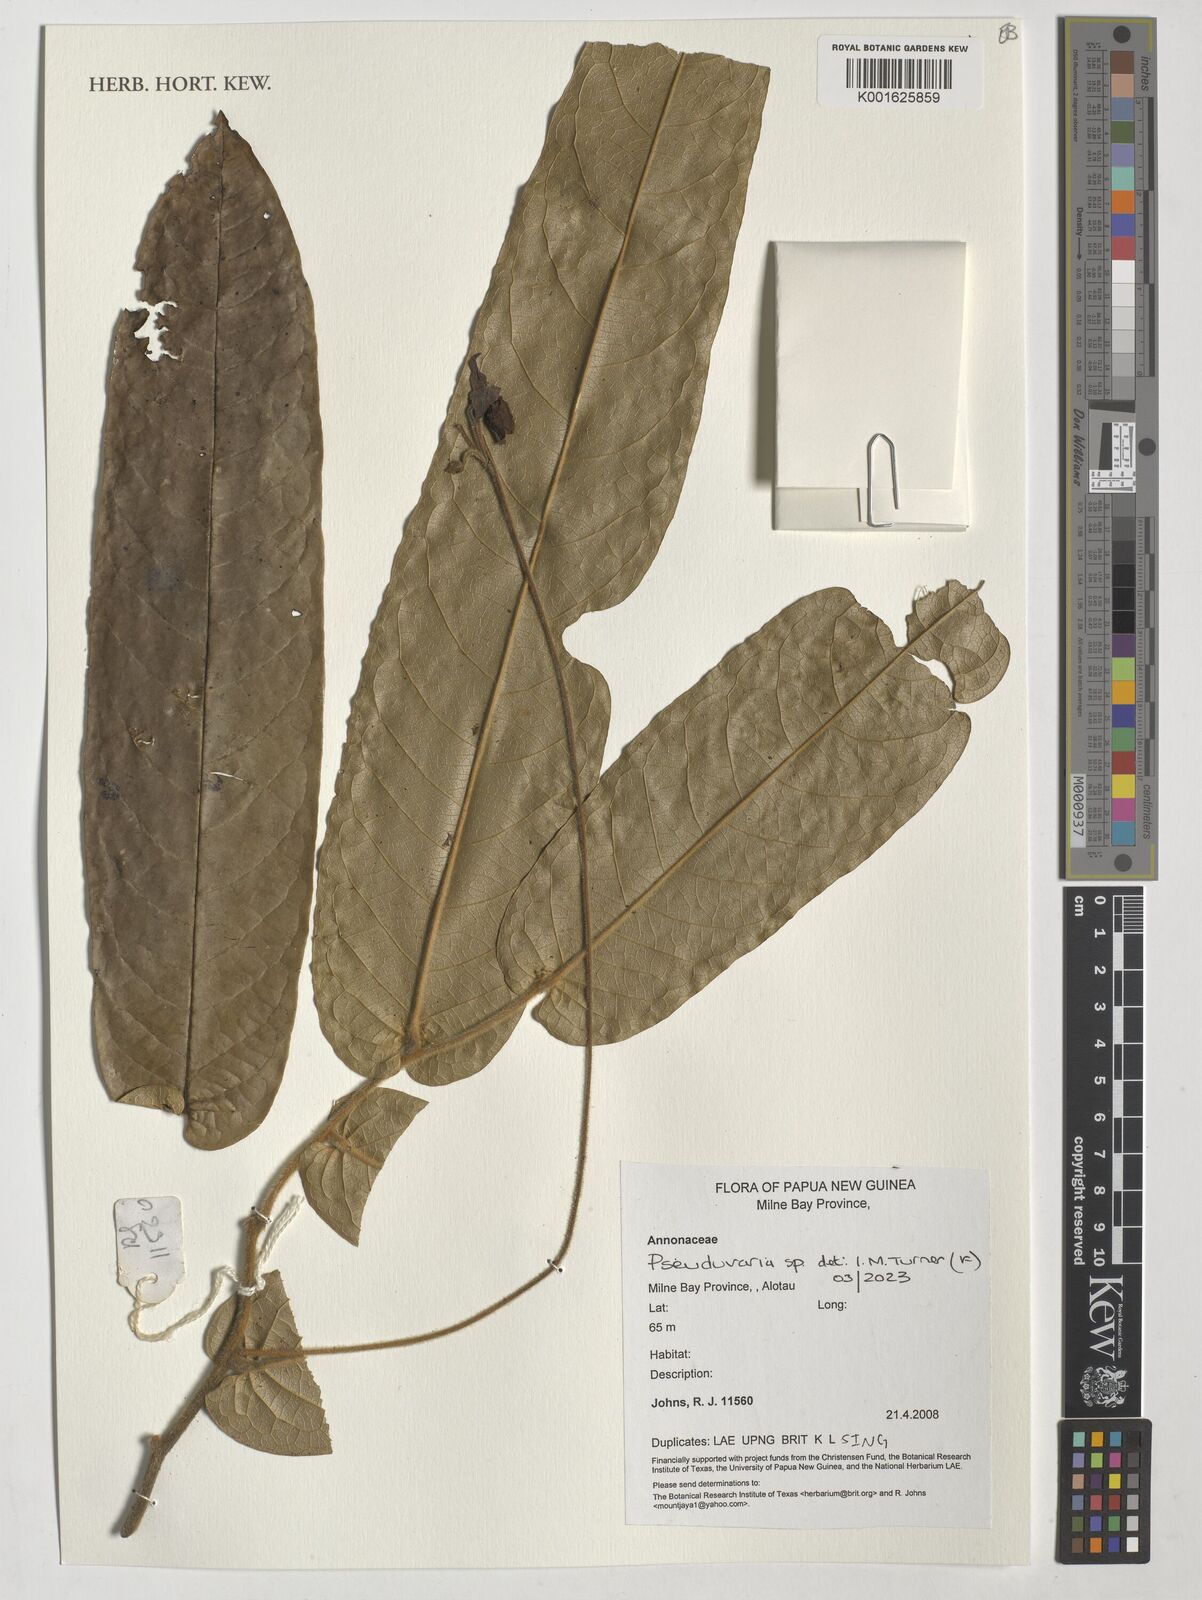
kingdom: Plantae
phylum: Tracheophyta
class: Magnoliopsida
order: Magnoliales
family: Annonaceae
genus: Pseuduvaria
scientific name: Pseuduvaria
